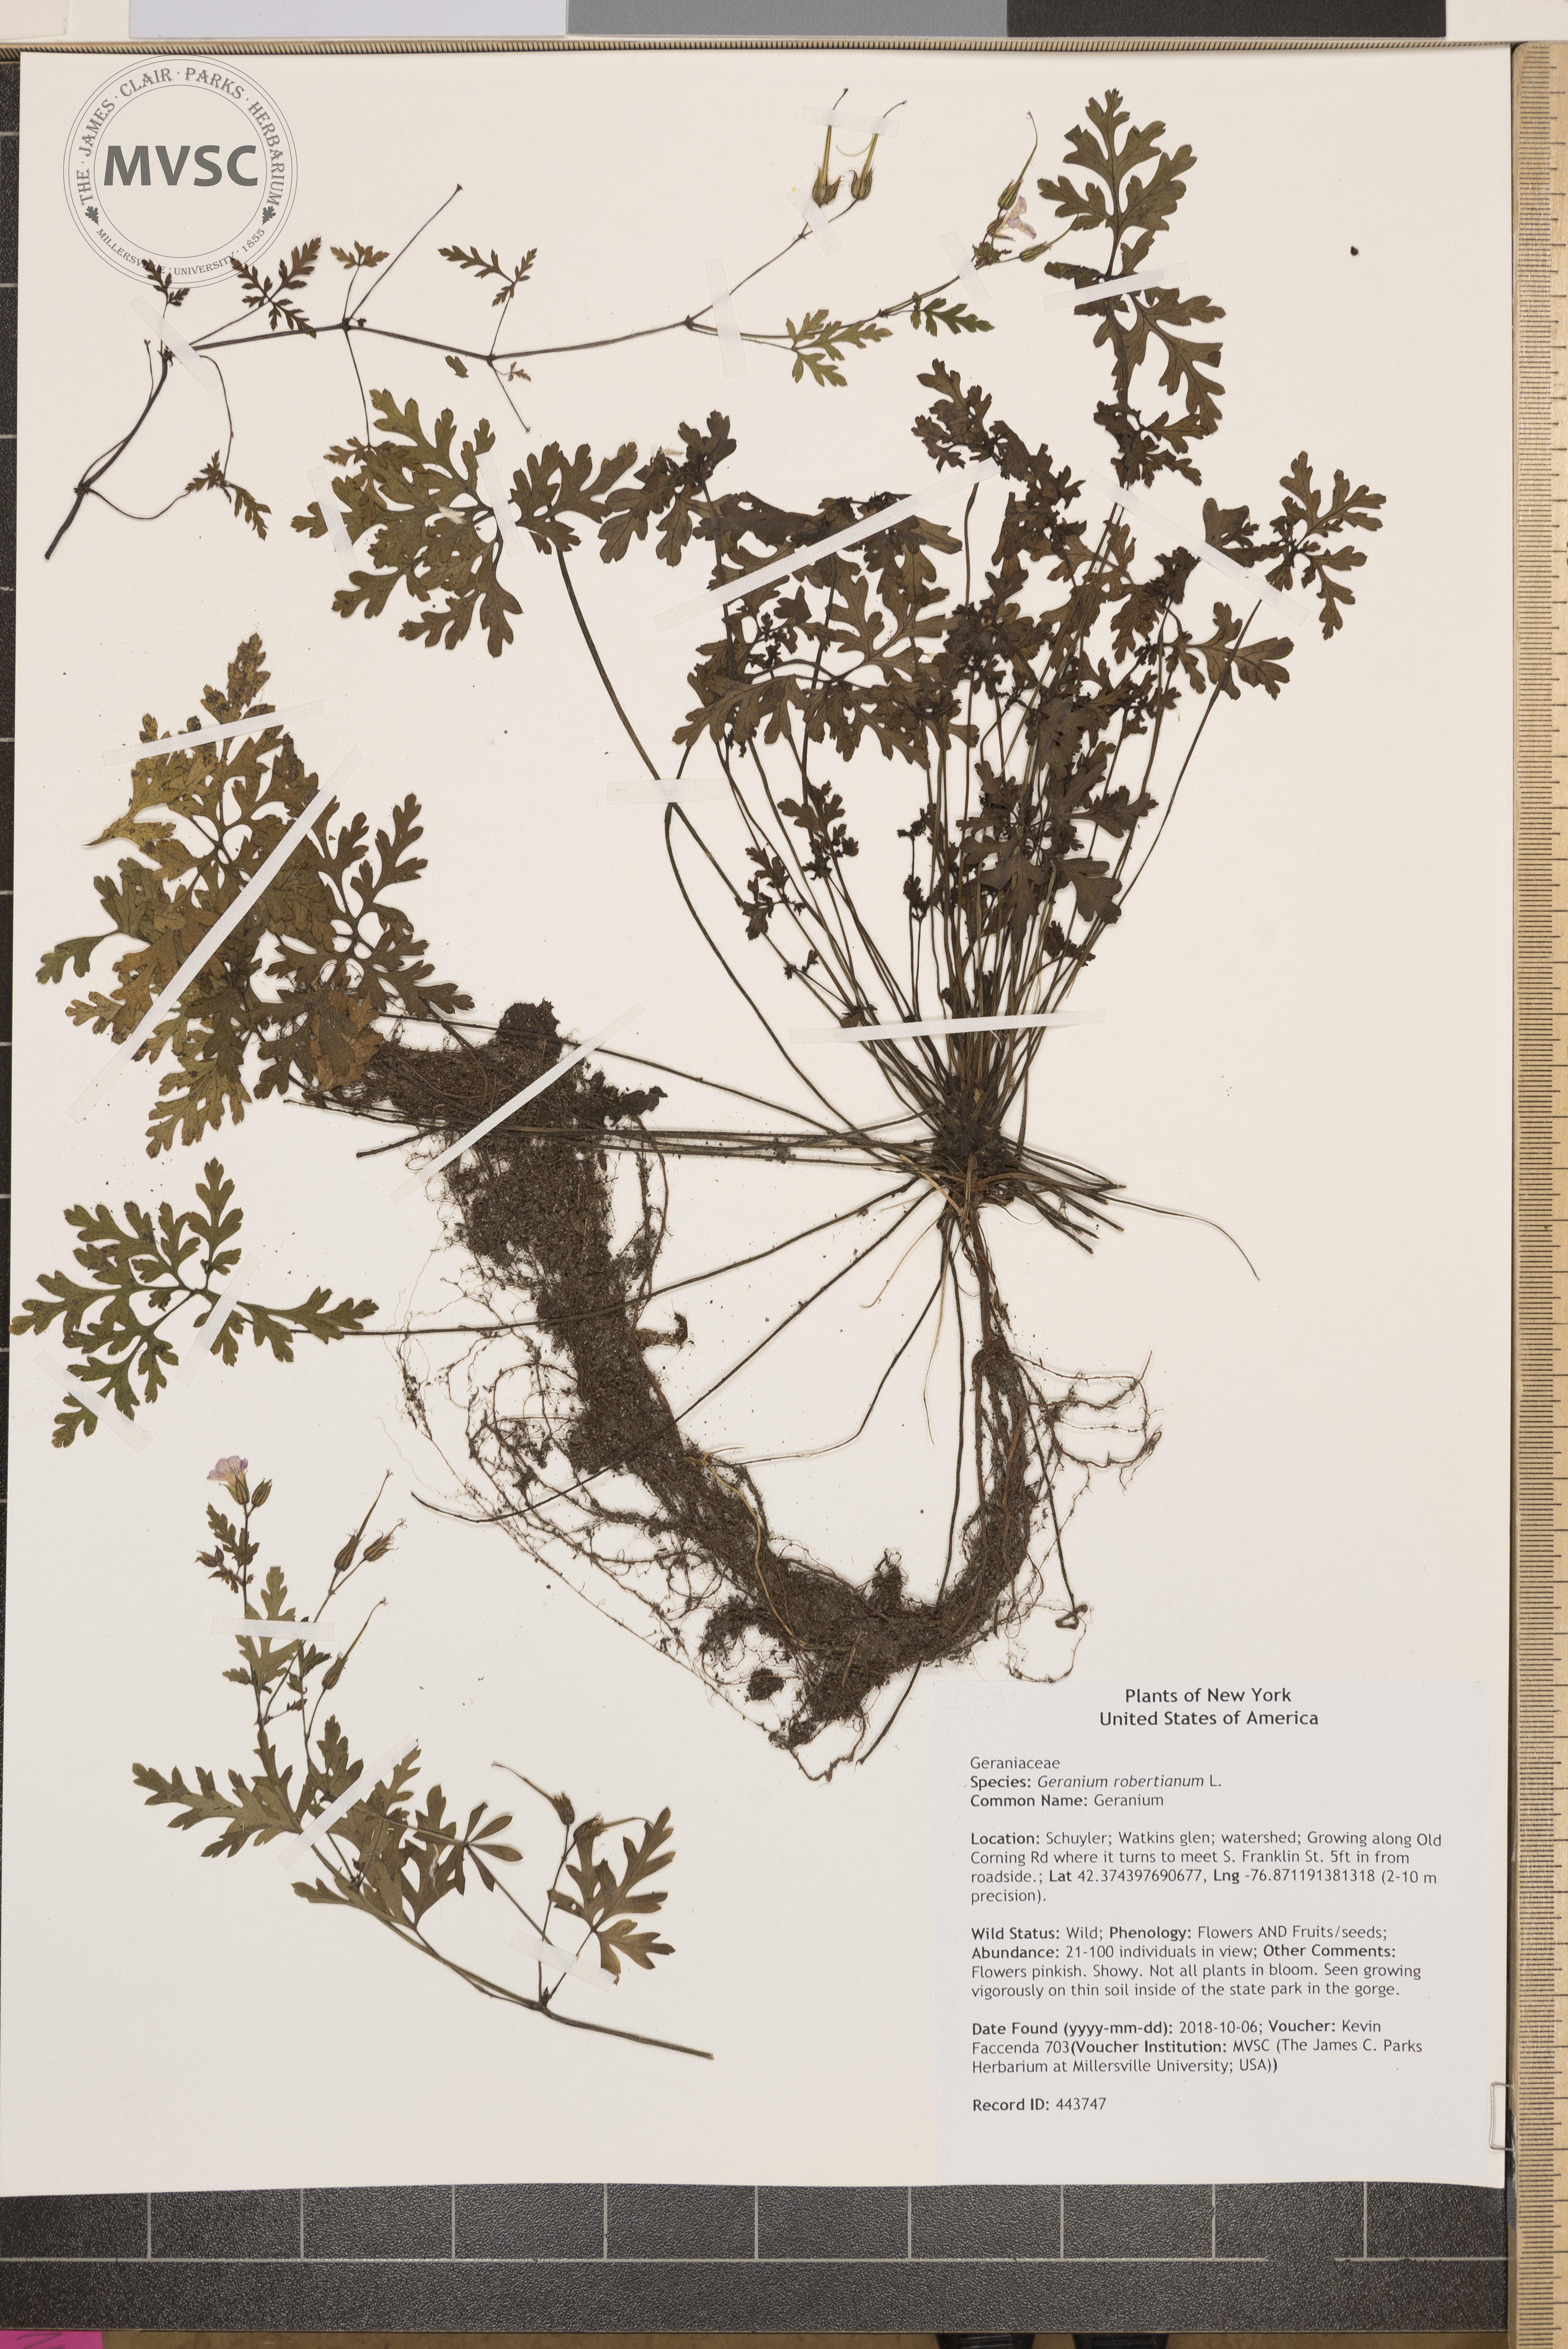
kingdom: Plantae
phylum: Tracheophyta
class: Magnoliopsida
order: Geraniales
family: Geraniaceae
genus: Geranium
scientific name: Geranium robertianum
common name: Geranium
